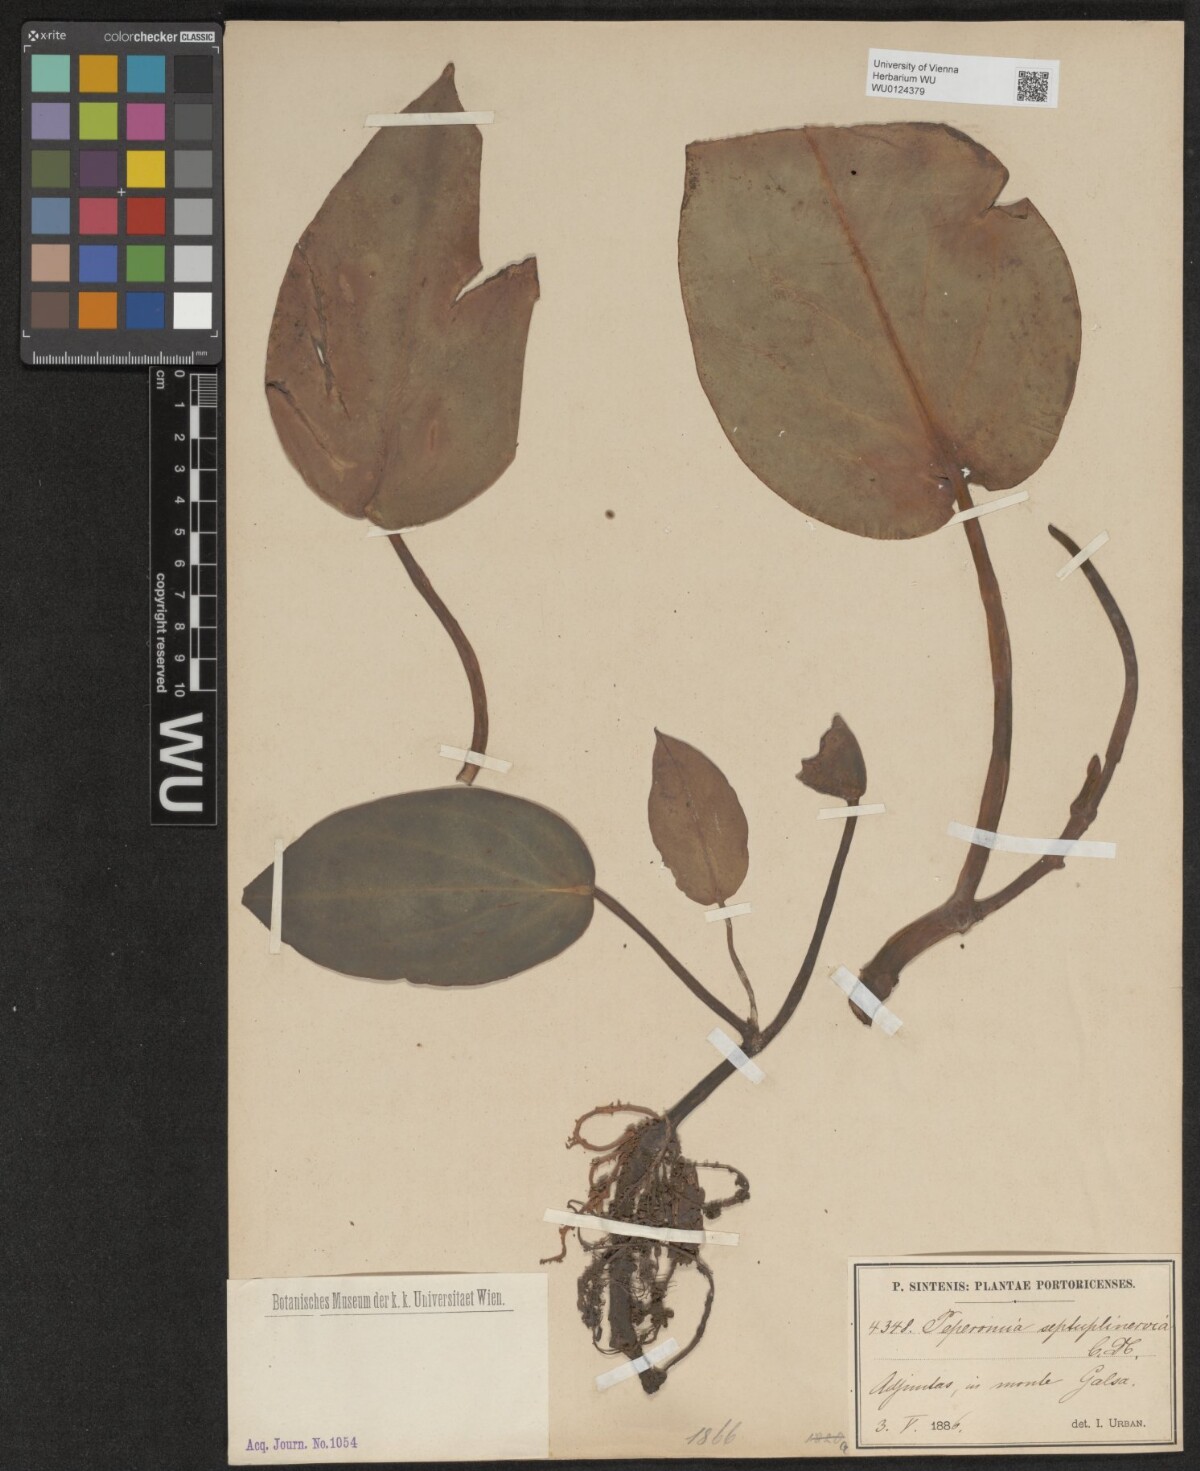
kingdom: Plantae
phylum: Tracheophyta
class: Magnoliopsida
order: Piperales
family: Piperaceae
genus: Peperomia
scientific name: Peperomia maculosa
